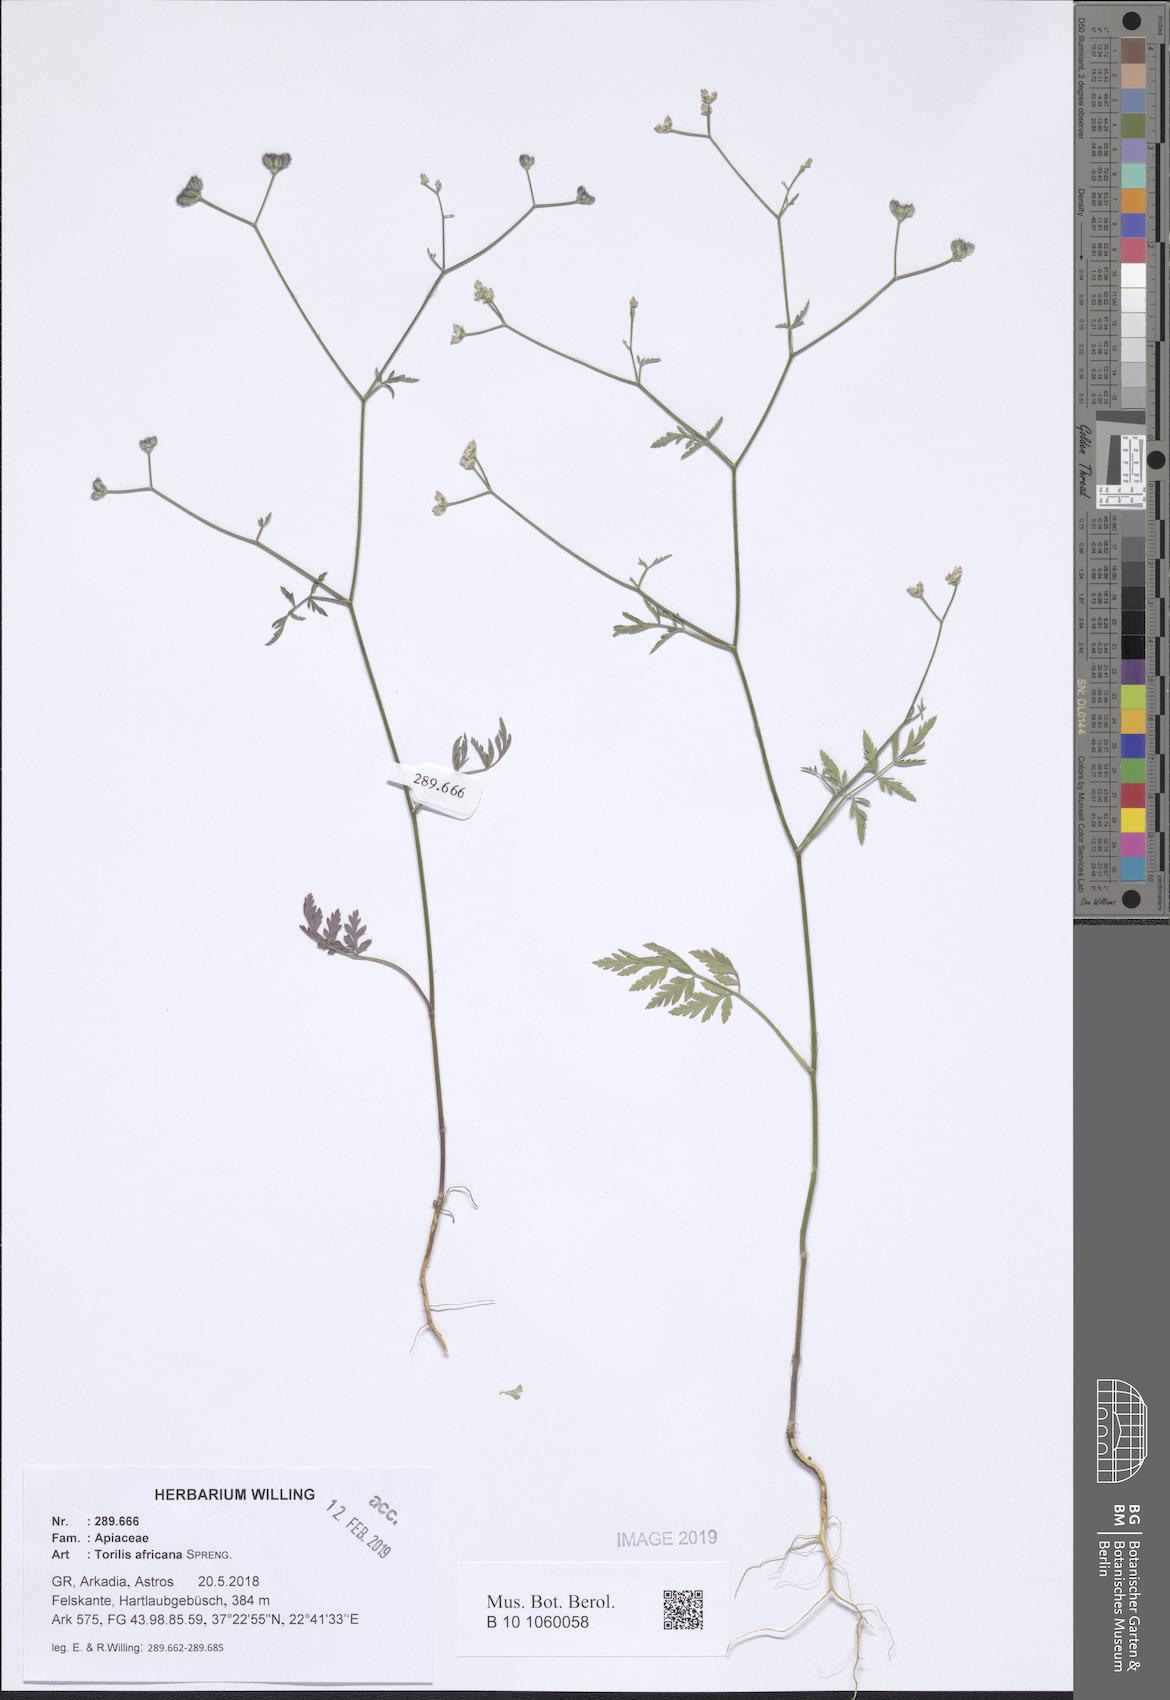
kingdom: Plantae
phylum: Tracheophyta
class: Magnoliopsida
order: Apiales
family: Apiaceae
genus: Torilis
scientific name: Torilis africana
